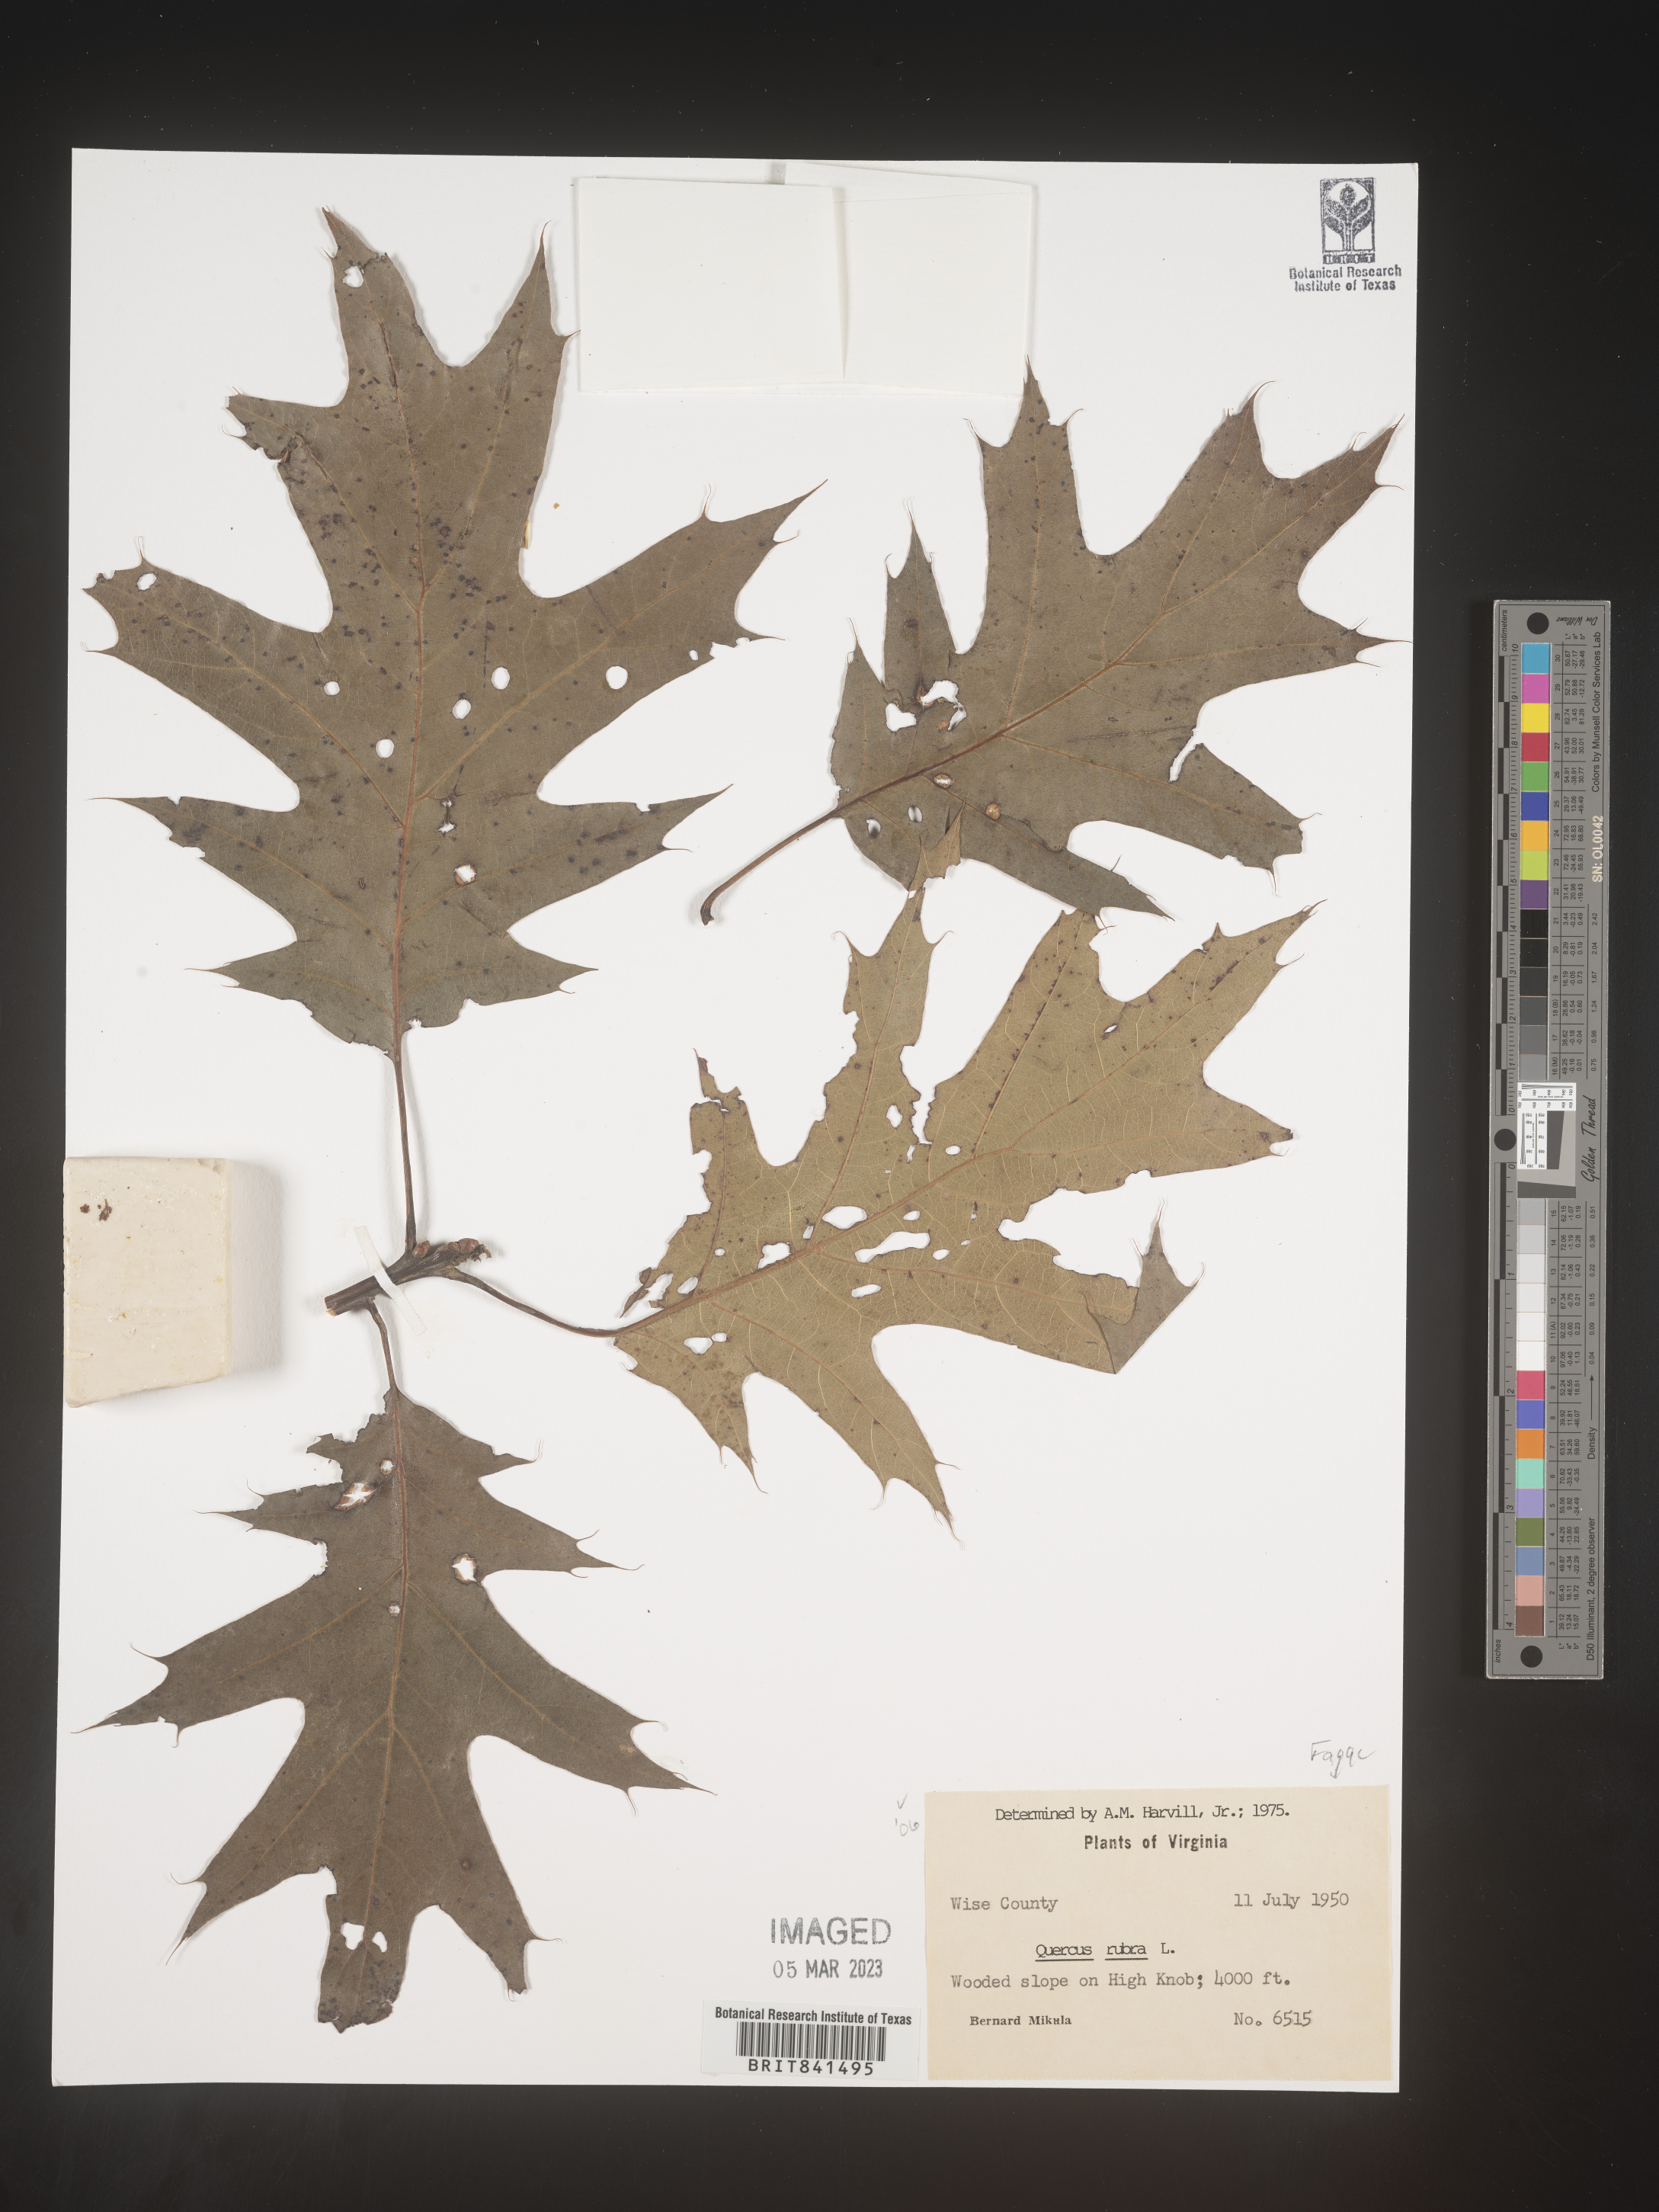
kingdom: Plantae
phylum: Tracheophyta
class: Magnoliopsida
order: Fagales
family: Fagaceae
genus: Quercus
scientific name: Quercus rubra
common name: Red oak
